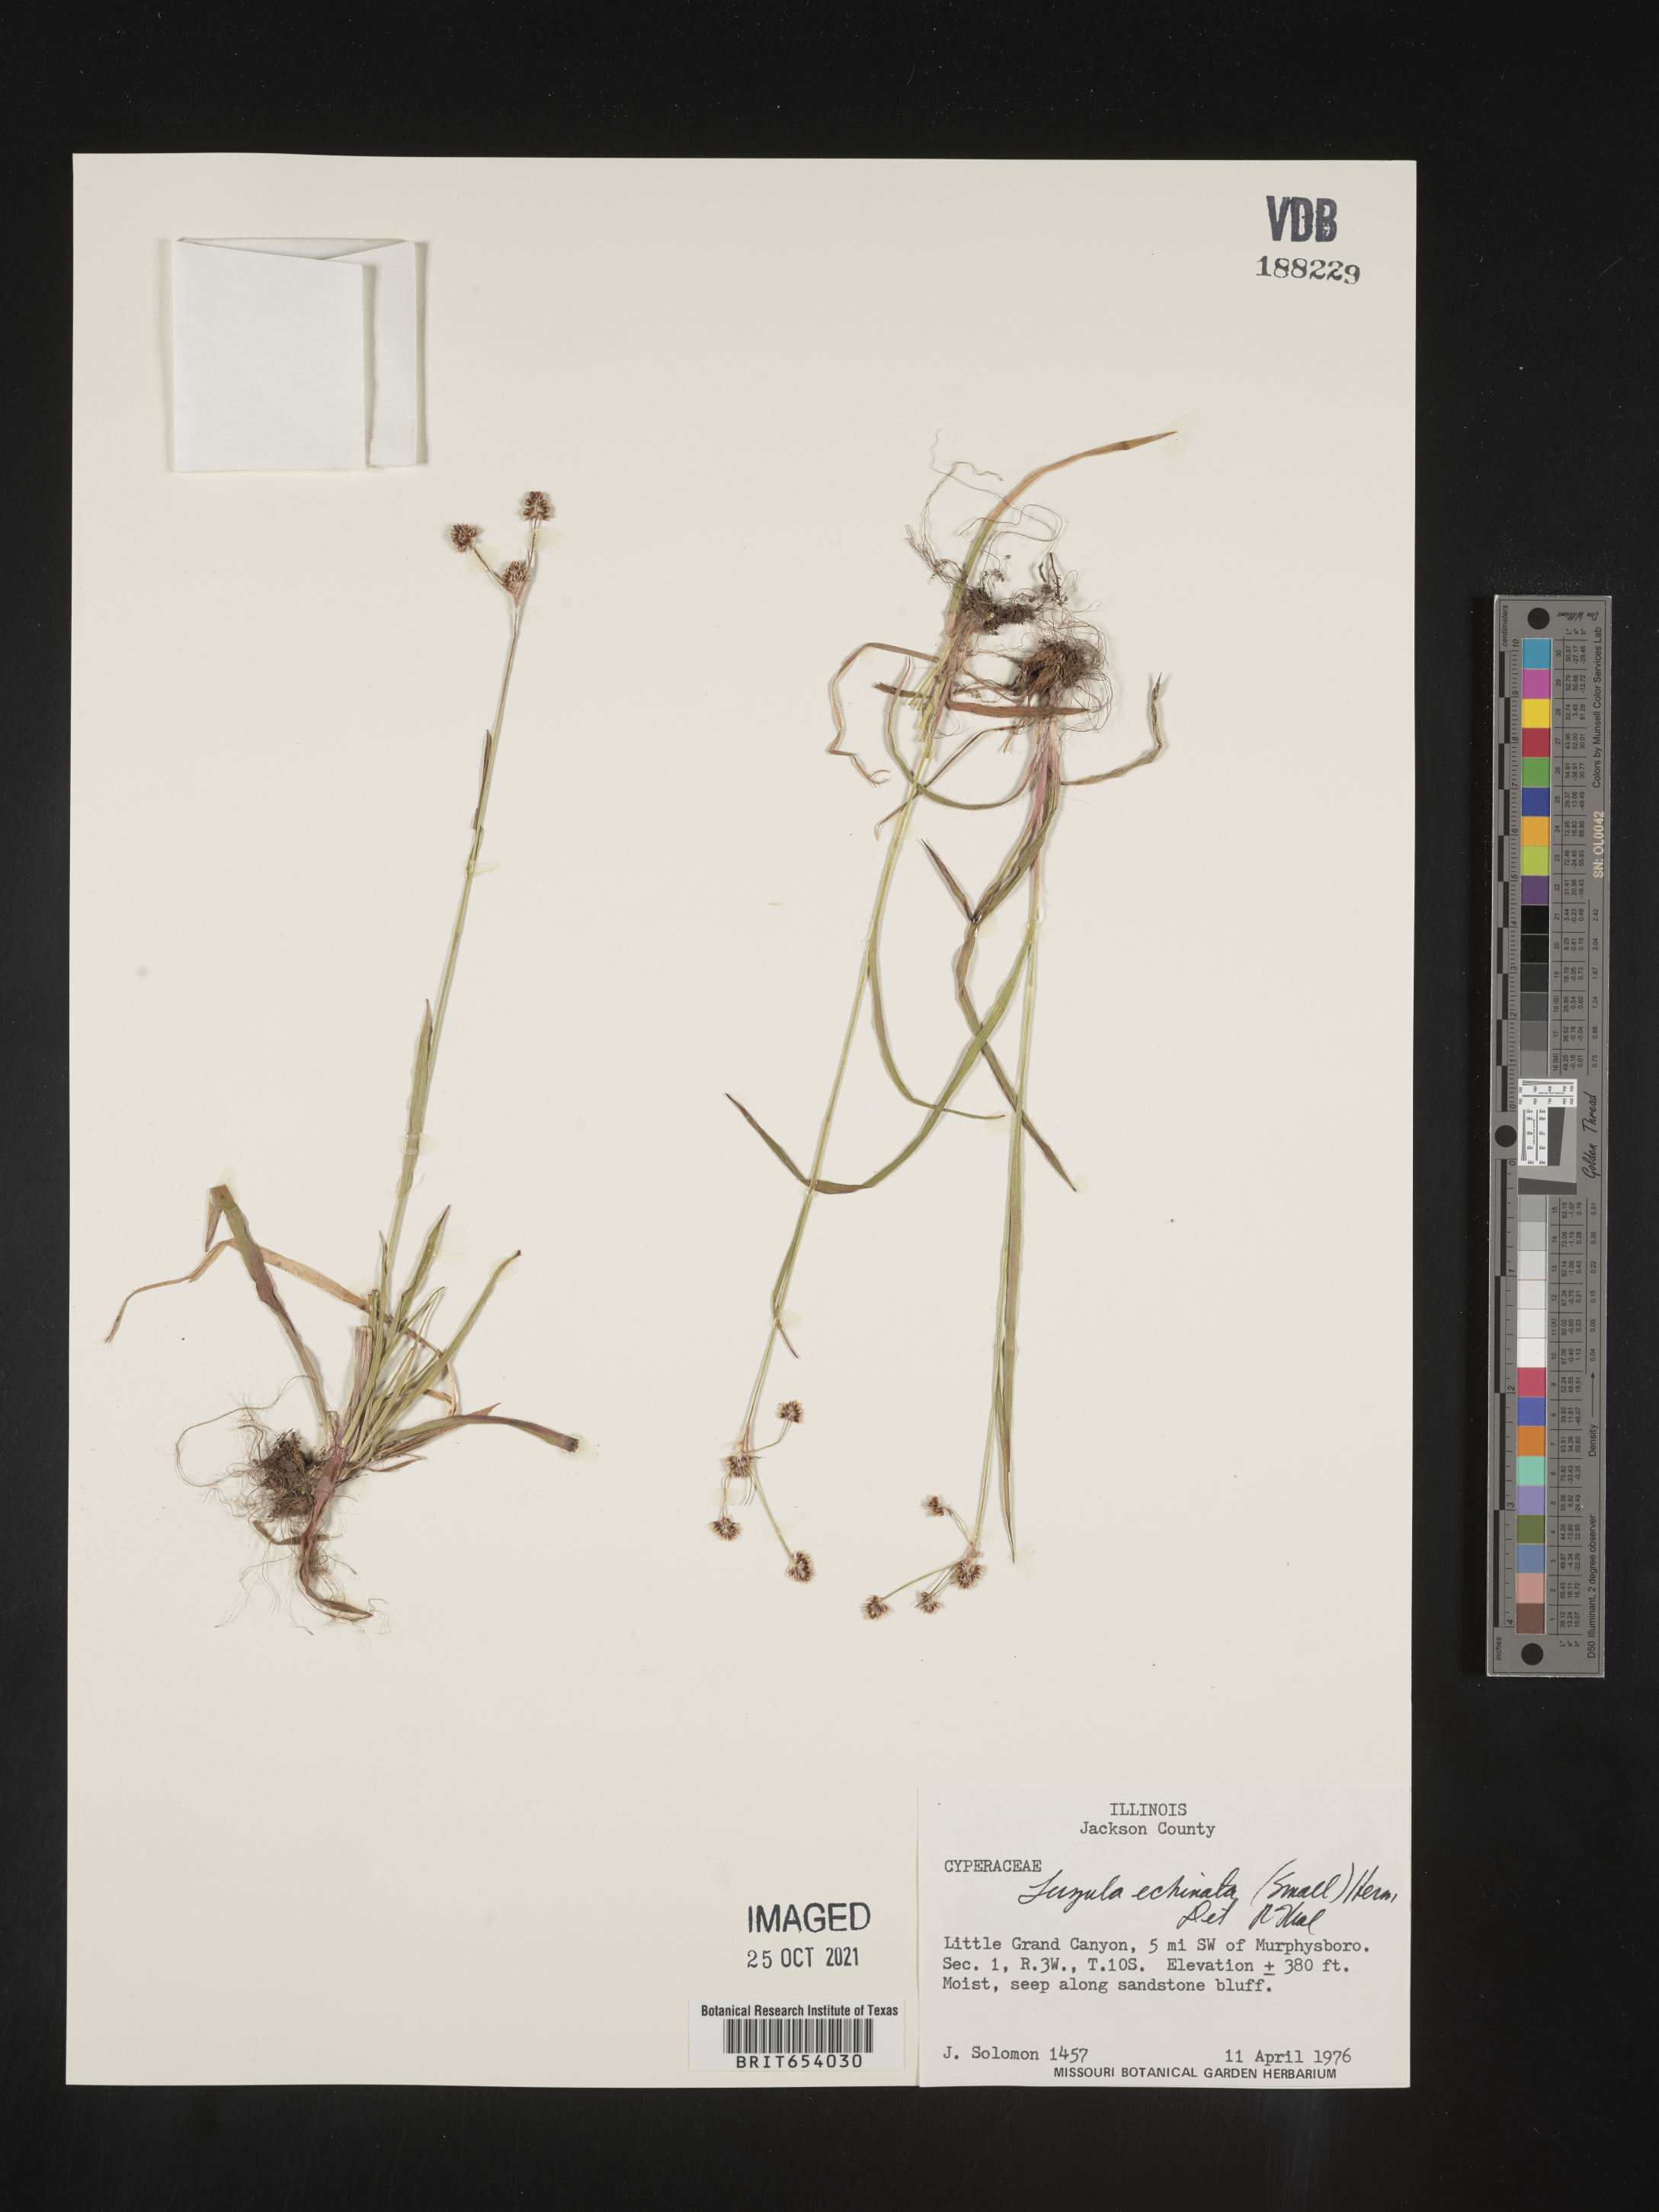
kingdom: Plantae
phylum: Tracheophyta
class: Liliopsida
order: Poales
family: Juncaceae
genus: Luzula
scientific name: Luzula echinata
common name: Hedgehog woodrush
